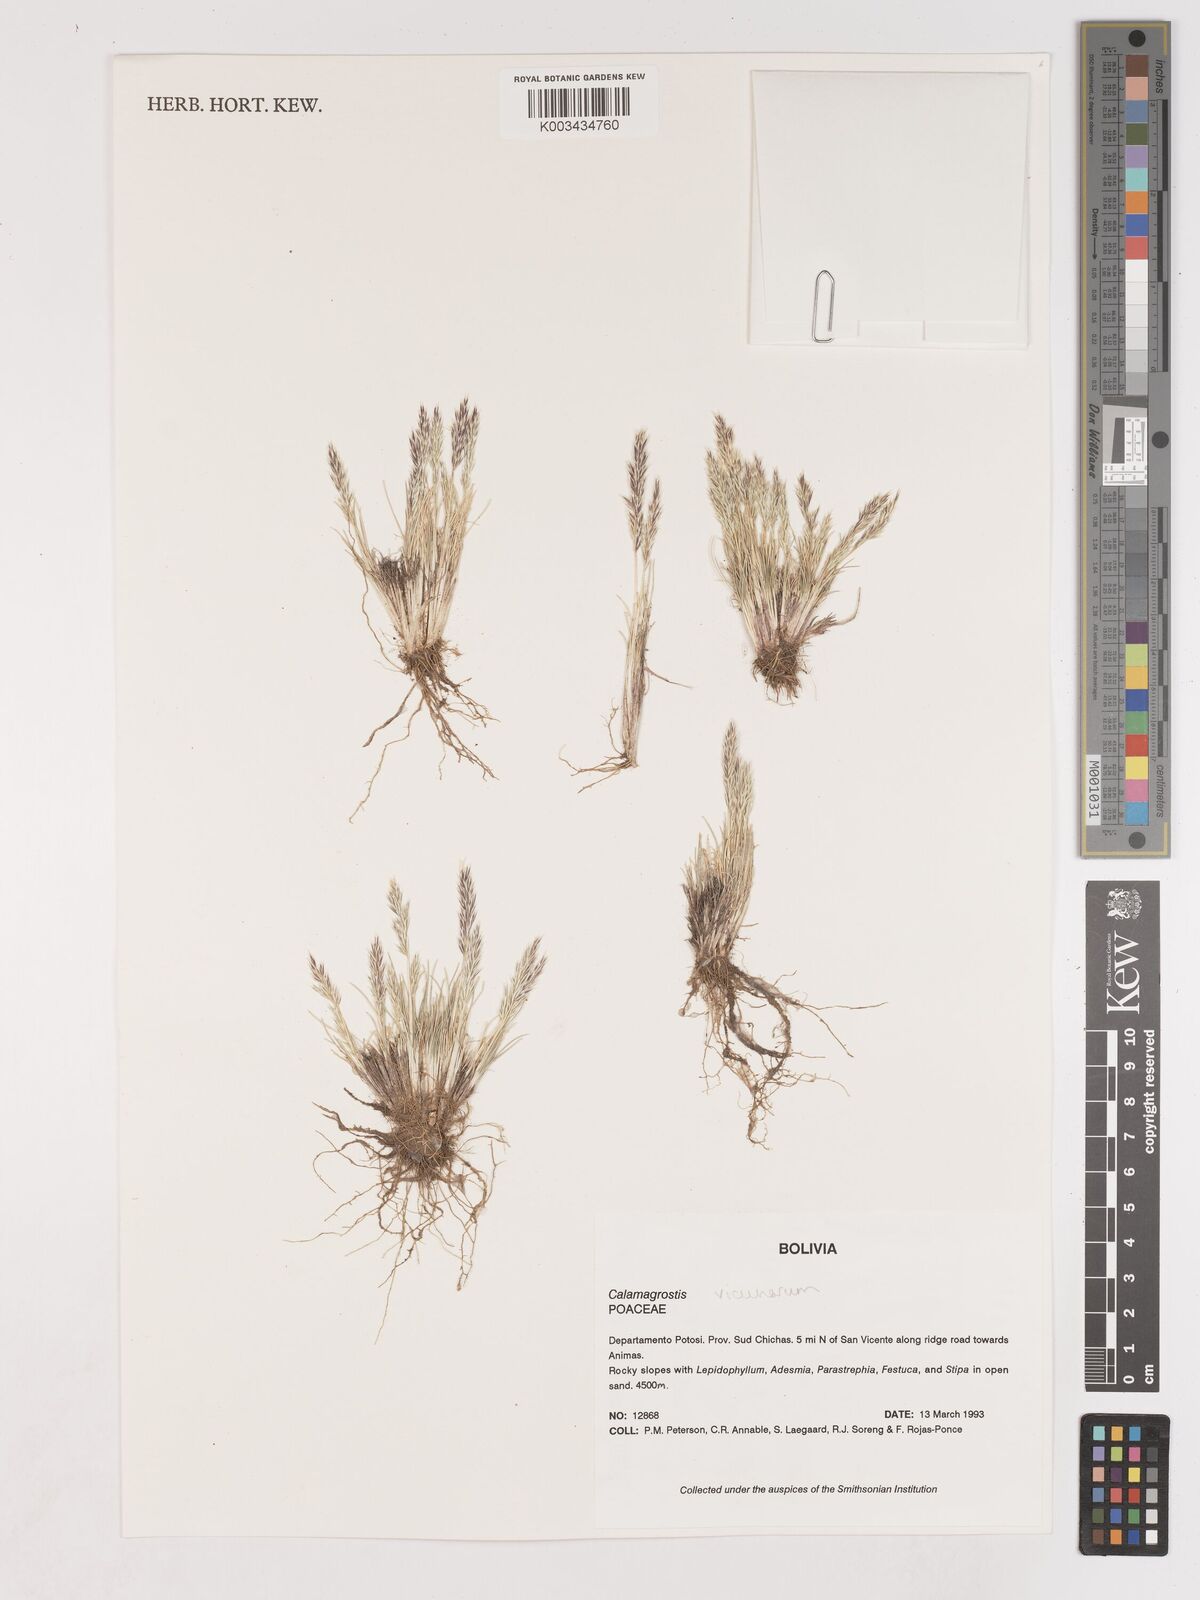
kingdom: Plantae
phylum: Tracheophyta
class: Liliopsida
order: Poales
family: Poaceae
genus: Cinnagrostis
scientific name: Cinnagrostis vicunarum
